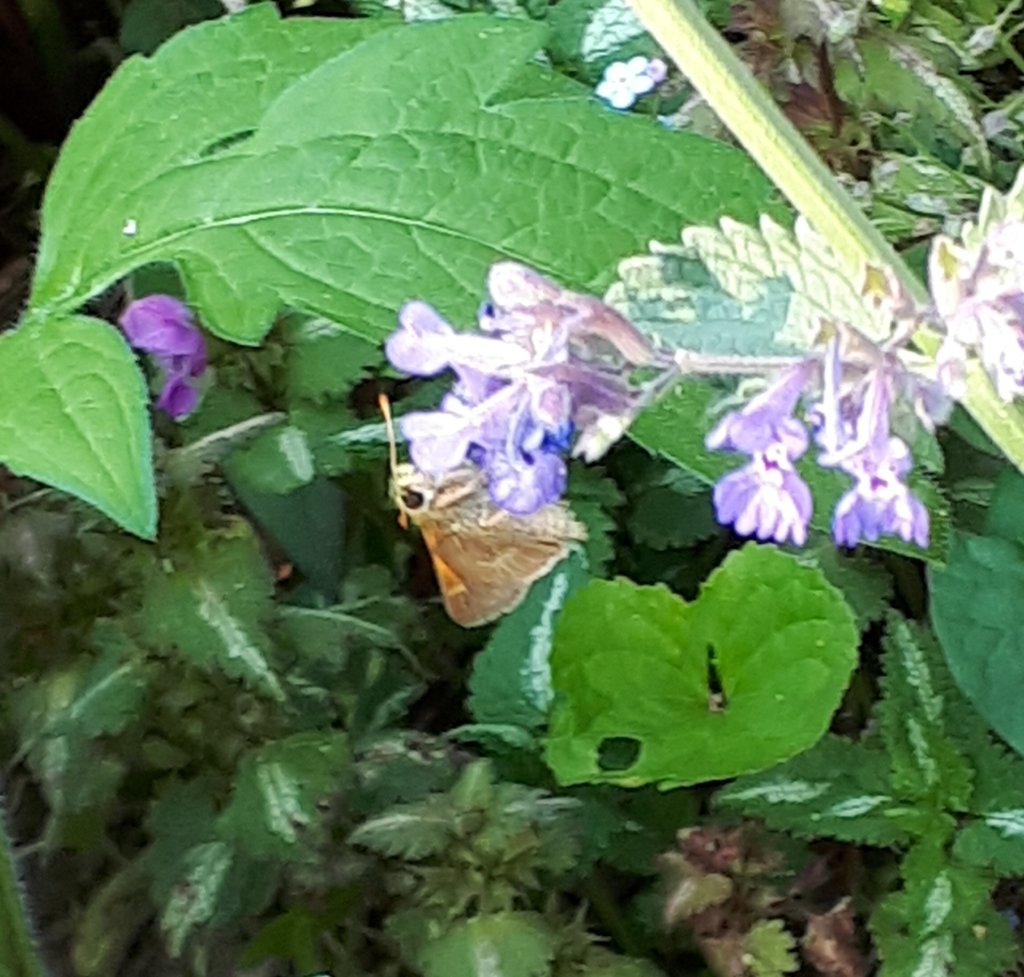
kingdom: Animalia
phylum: Arthropoda
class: Insecta
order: Lepidoptera
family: Hesperiidae
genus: Polites
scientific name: Polites themistocles
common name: Tawny-edged Skipper
